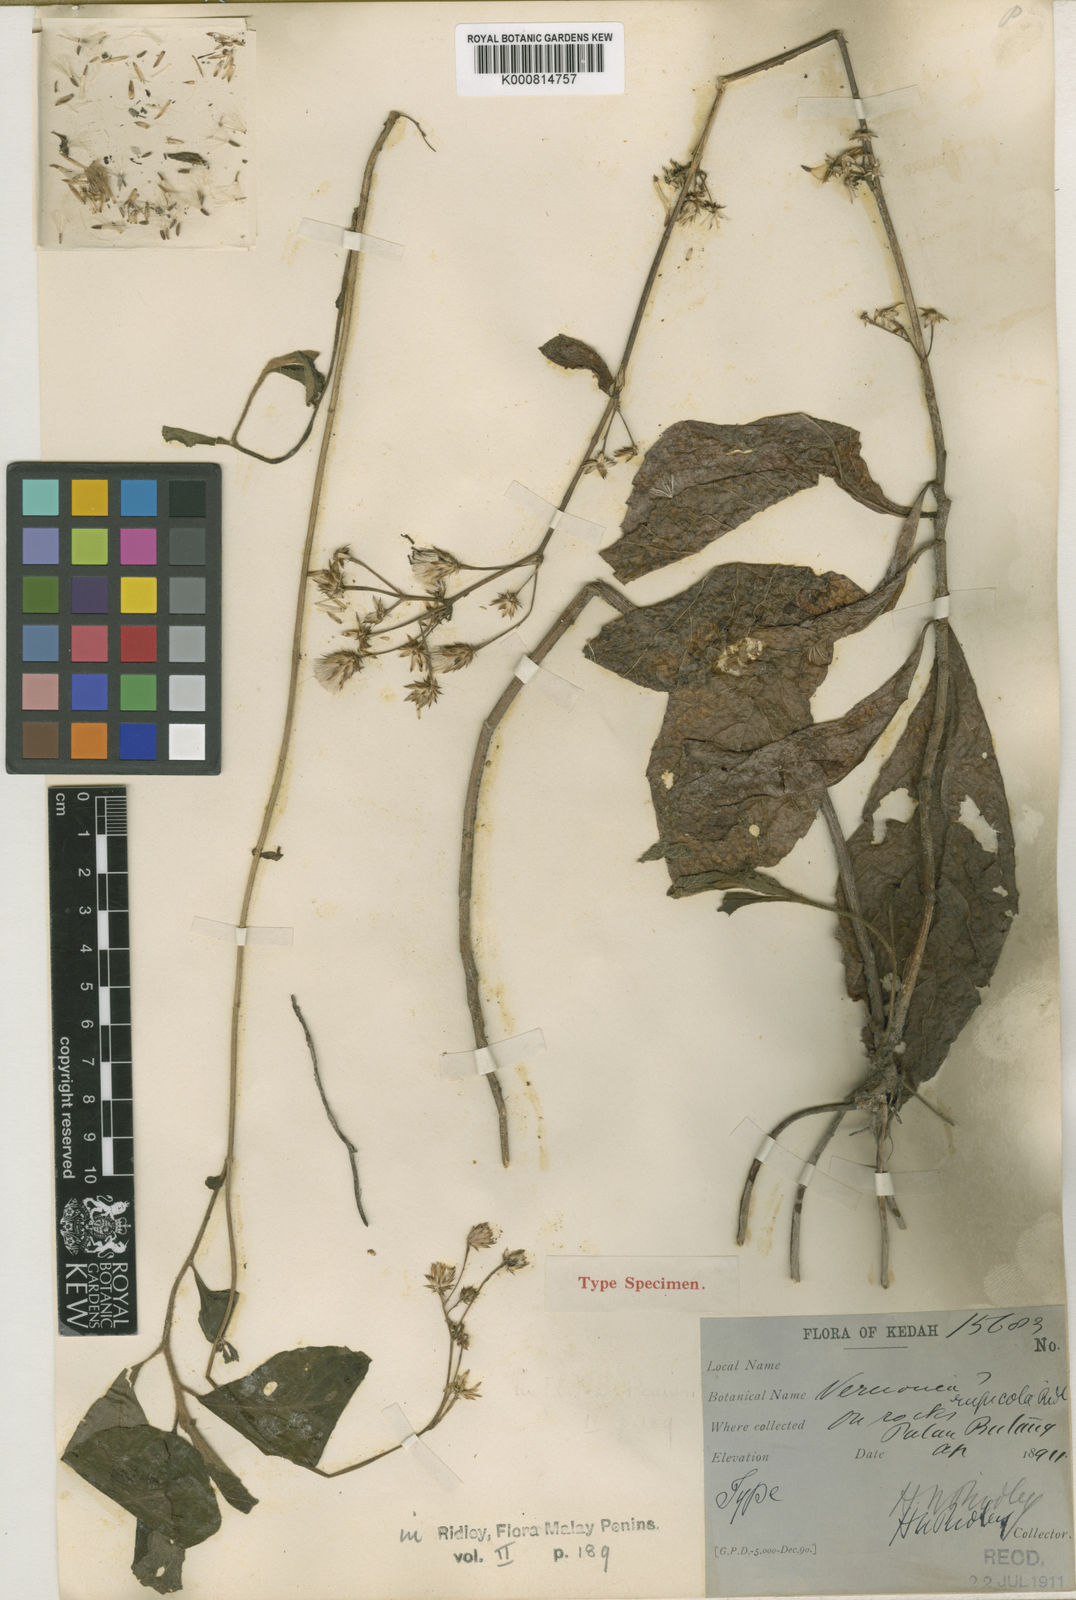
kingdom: Plantae
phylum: Tracheophyta
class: Magnoliopsida
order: Asterales
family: Asteraceae
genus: Vernonia
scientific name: Vernonia rupicola
